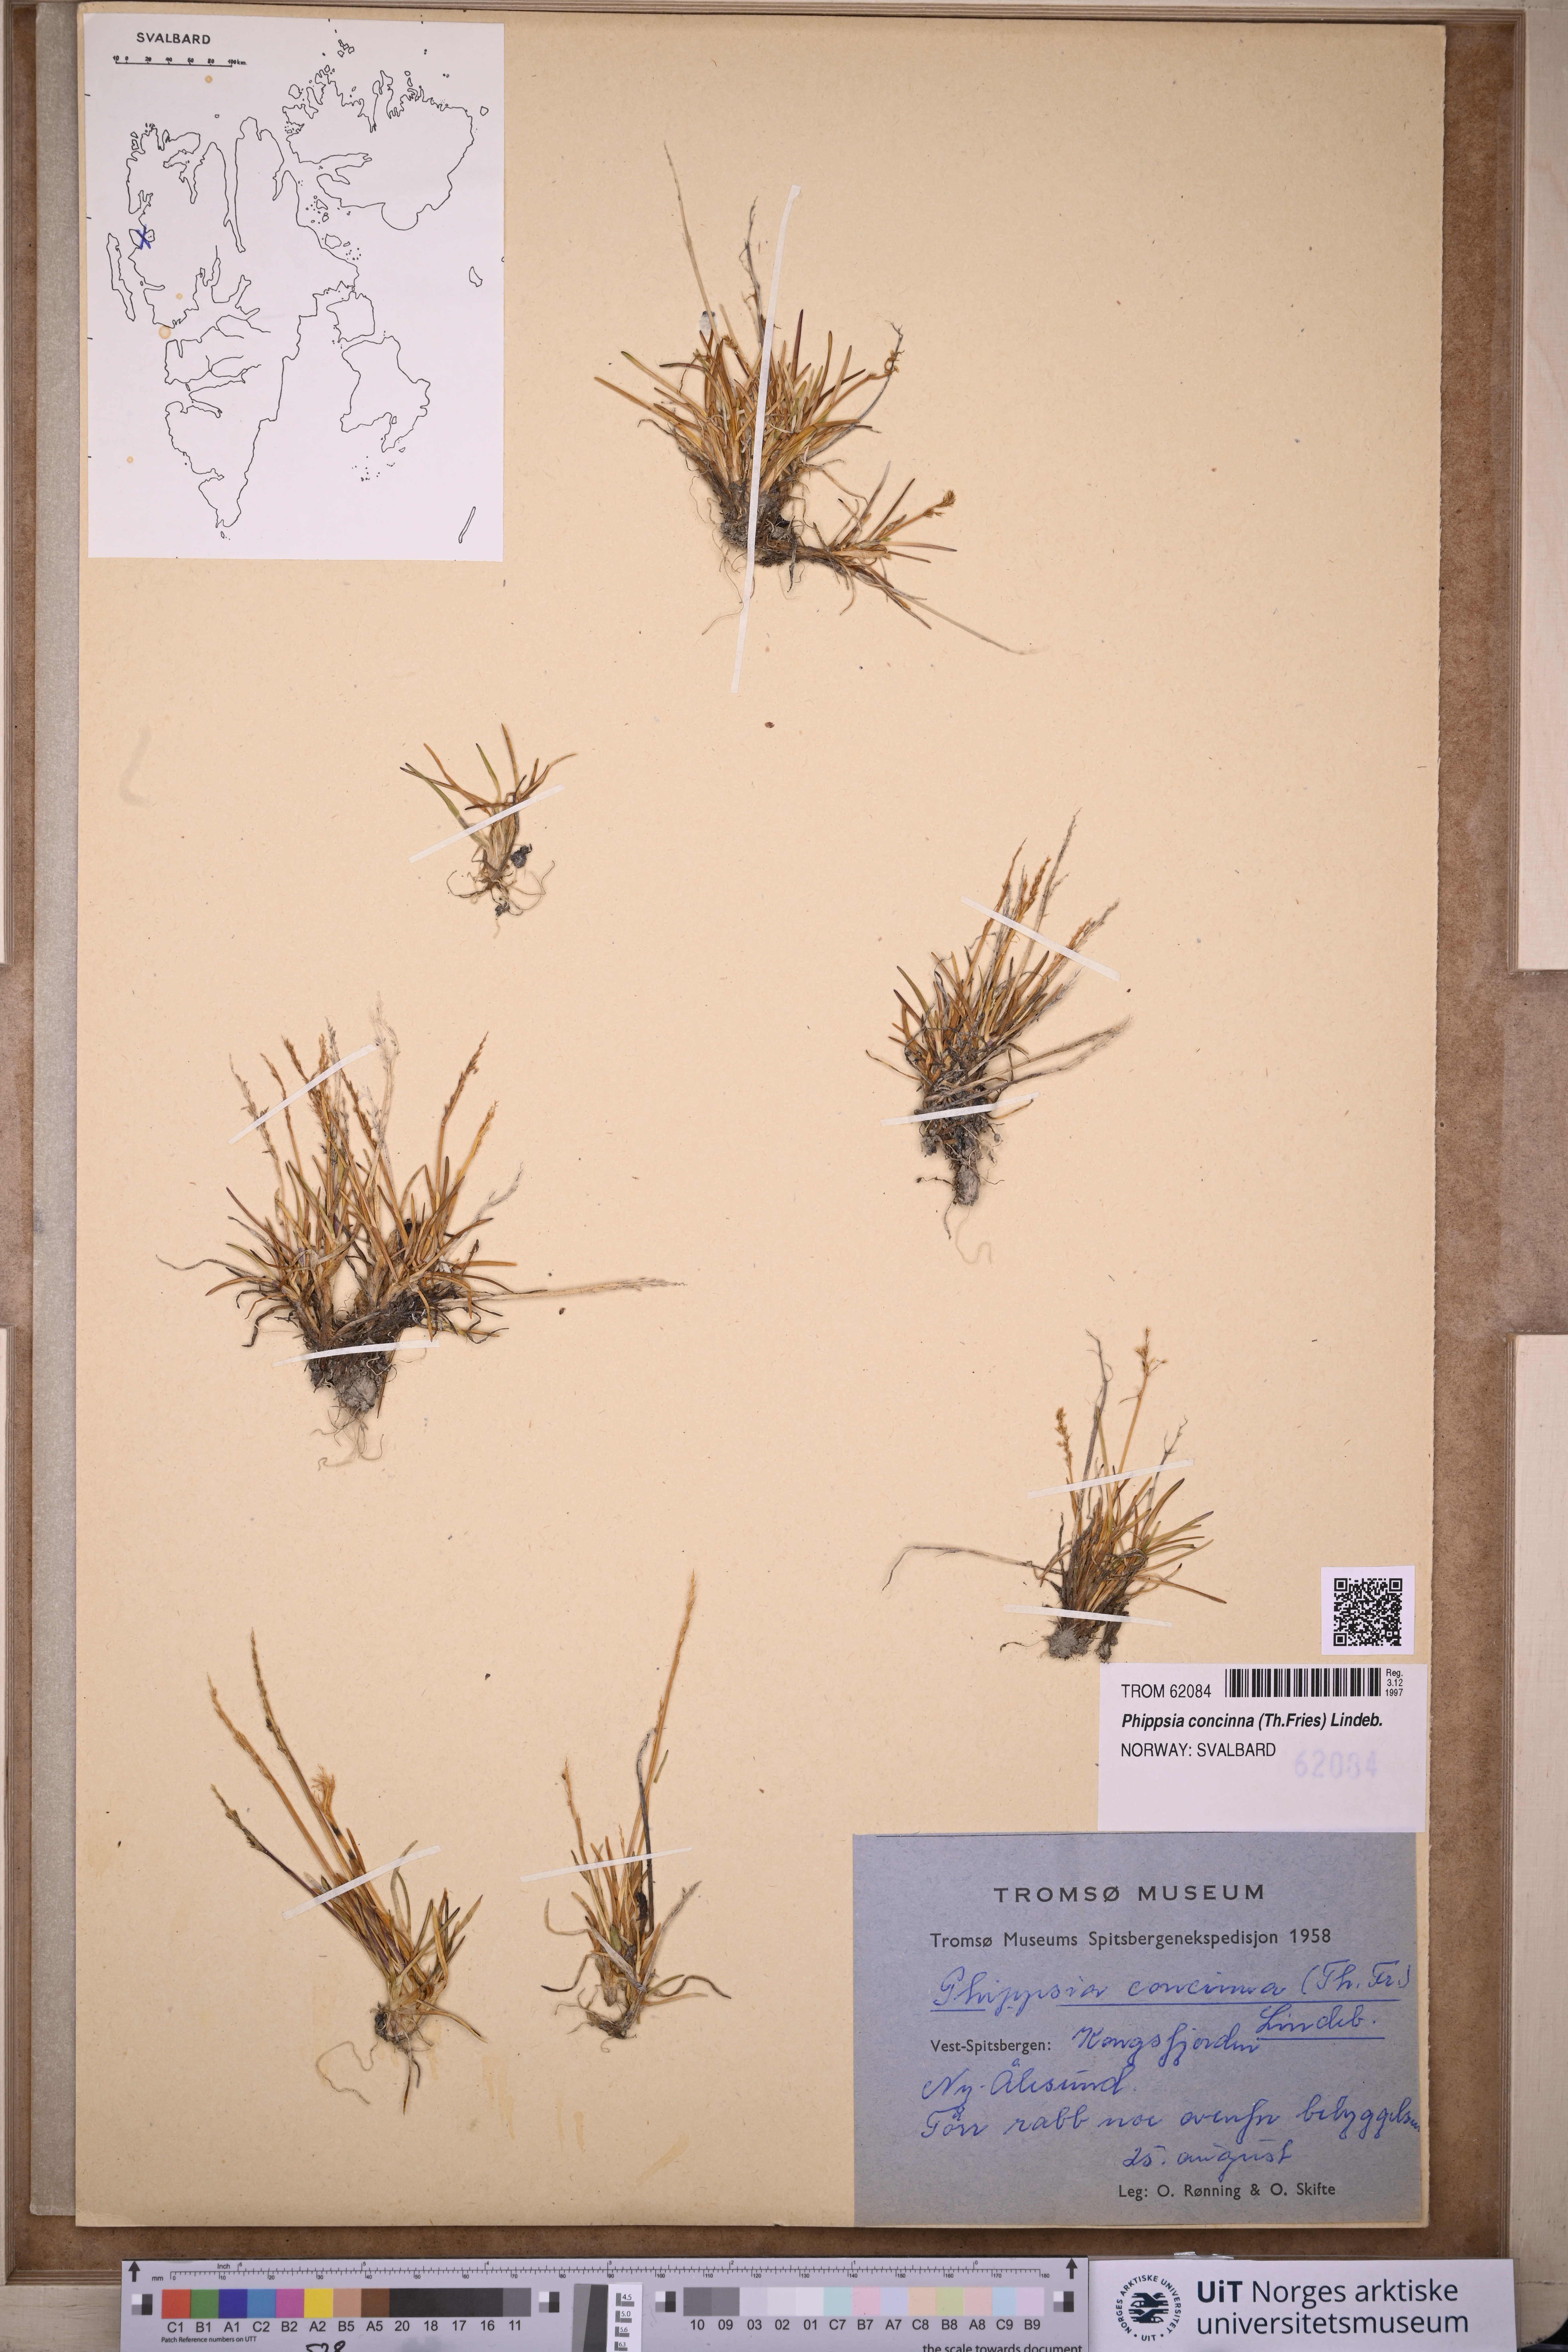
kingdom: Plantae
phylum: Tracheophyta
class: Liliopsida
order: Poales
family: Poaceae
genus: Phippsia
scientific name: Phippsia concinna
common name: Snowgrass
